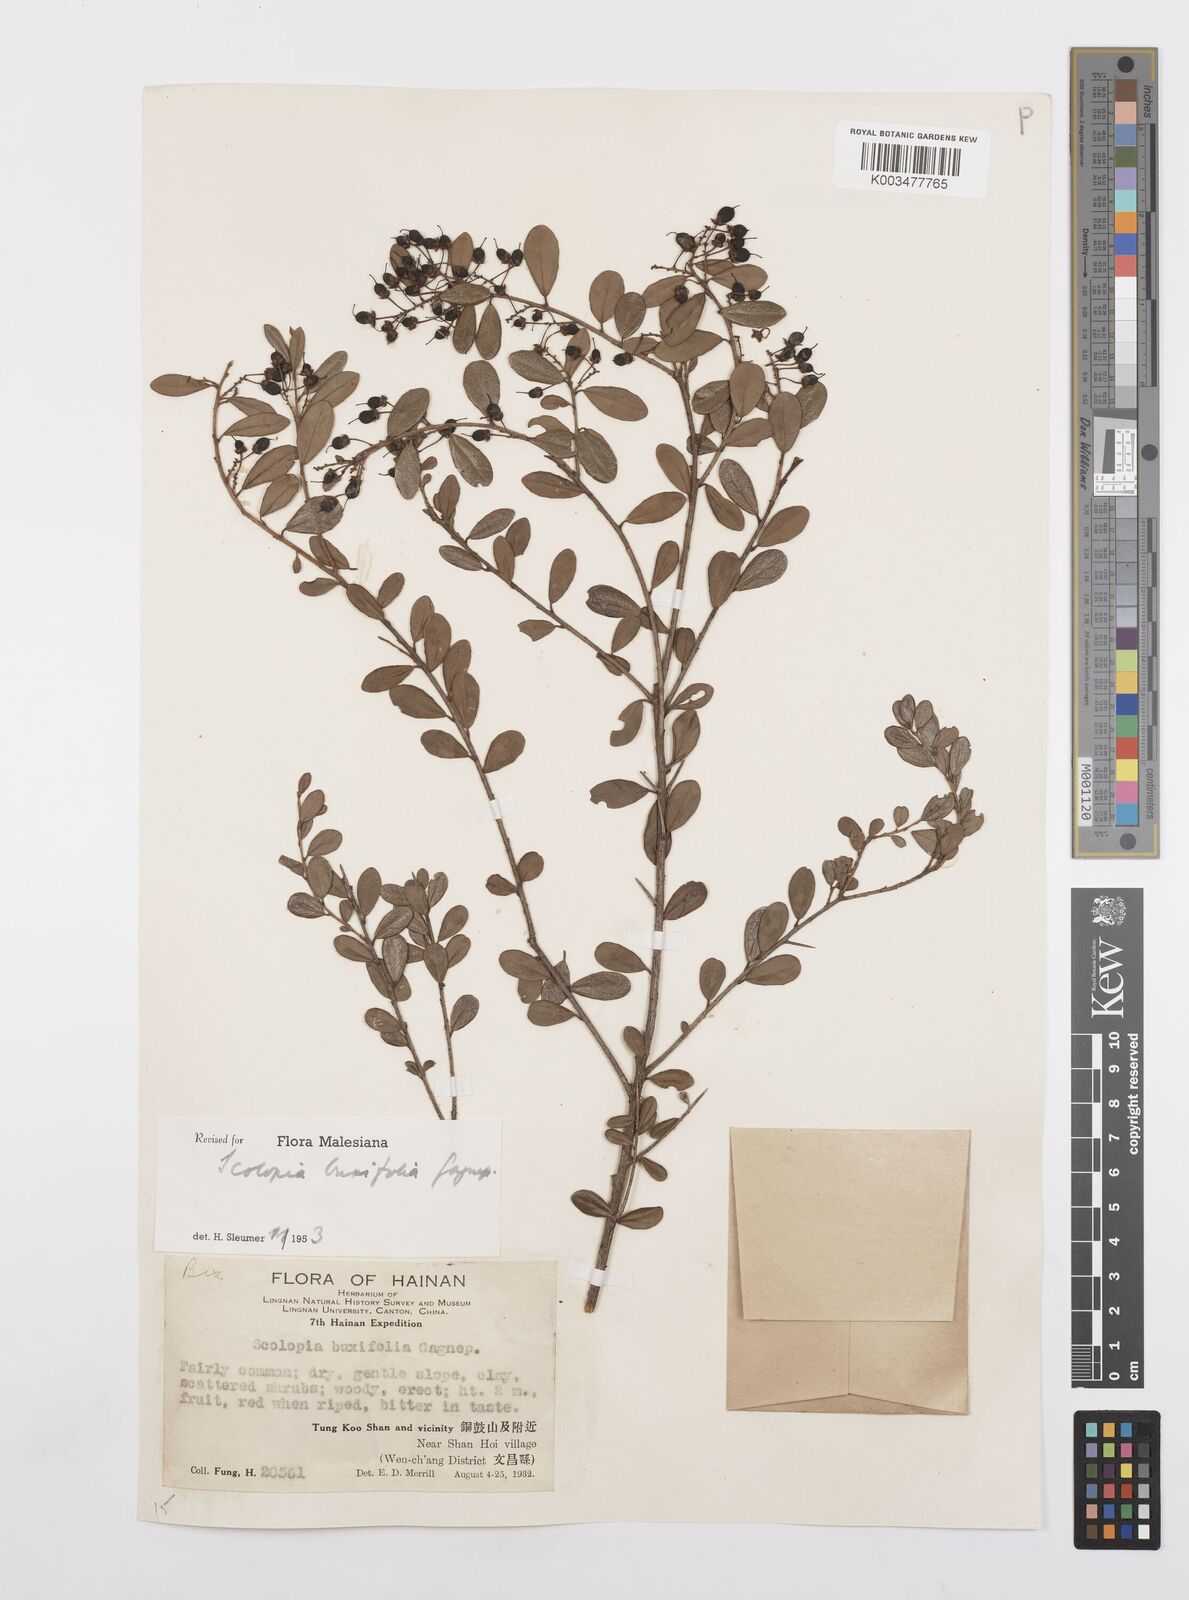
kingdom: Plantae
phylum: Tracheophyta
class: Magnoliopsida
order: Malpighiales
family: Salicaceae
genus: Scolopia
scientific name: Scolopia buxifolia
